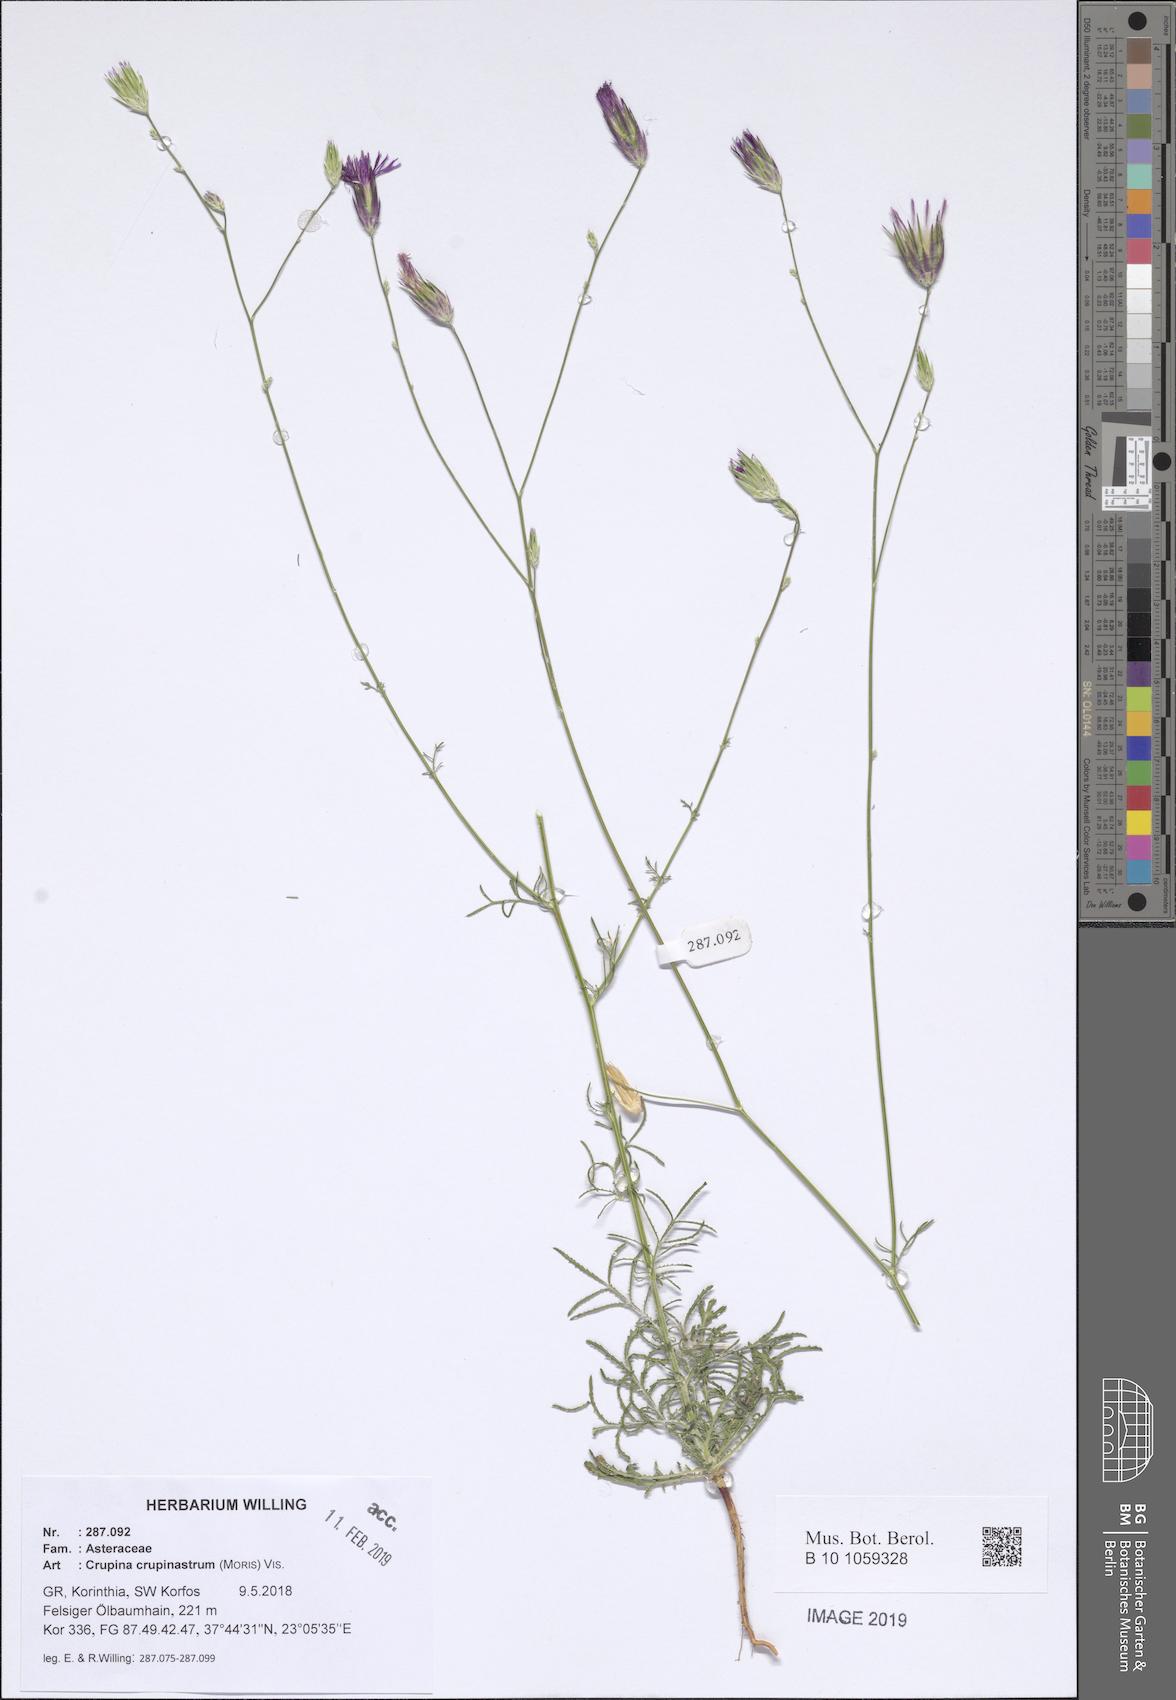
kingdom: Plantae
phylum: Tracheophyta
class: Magnoliopsida
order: Asterales
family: Asteraceae
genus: Crupina
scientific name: Crupina crupinastrum
